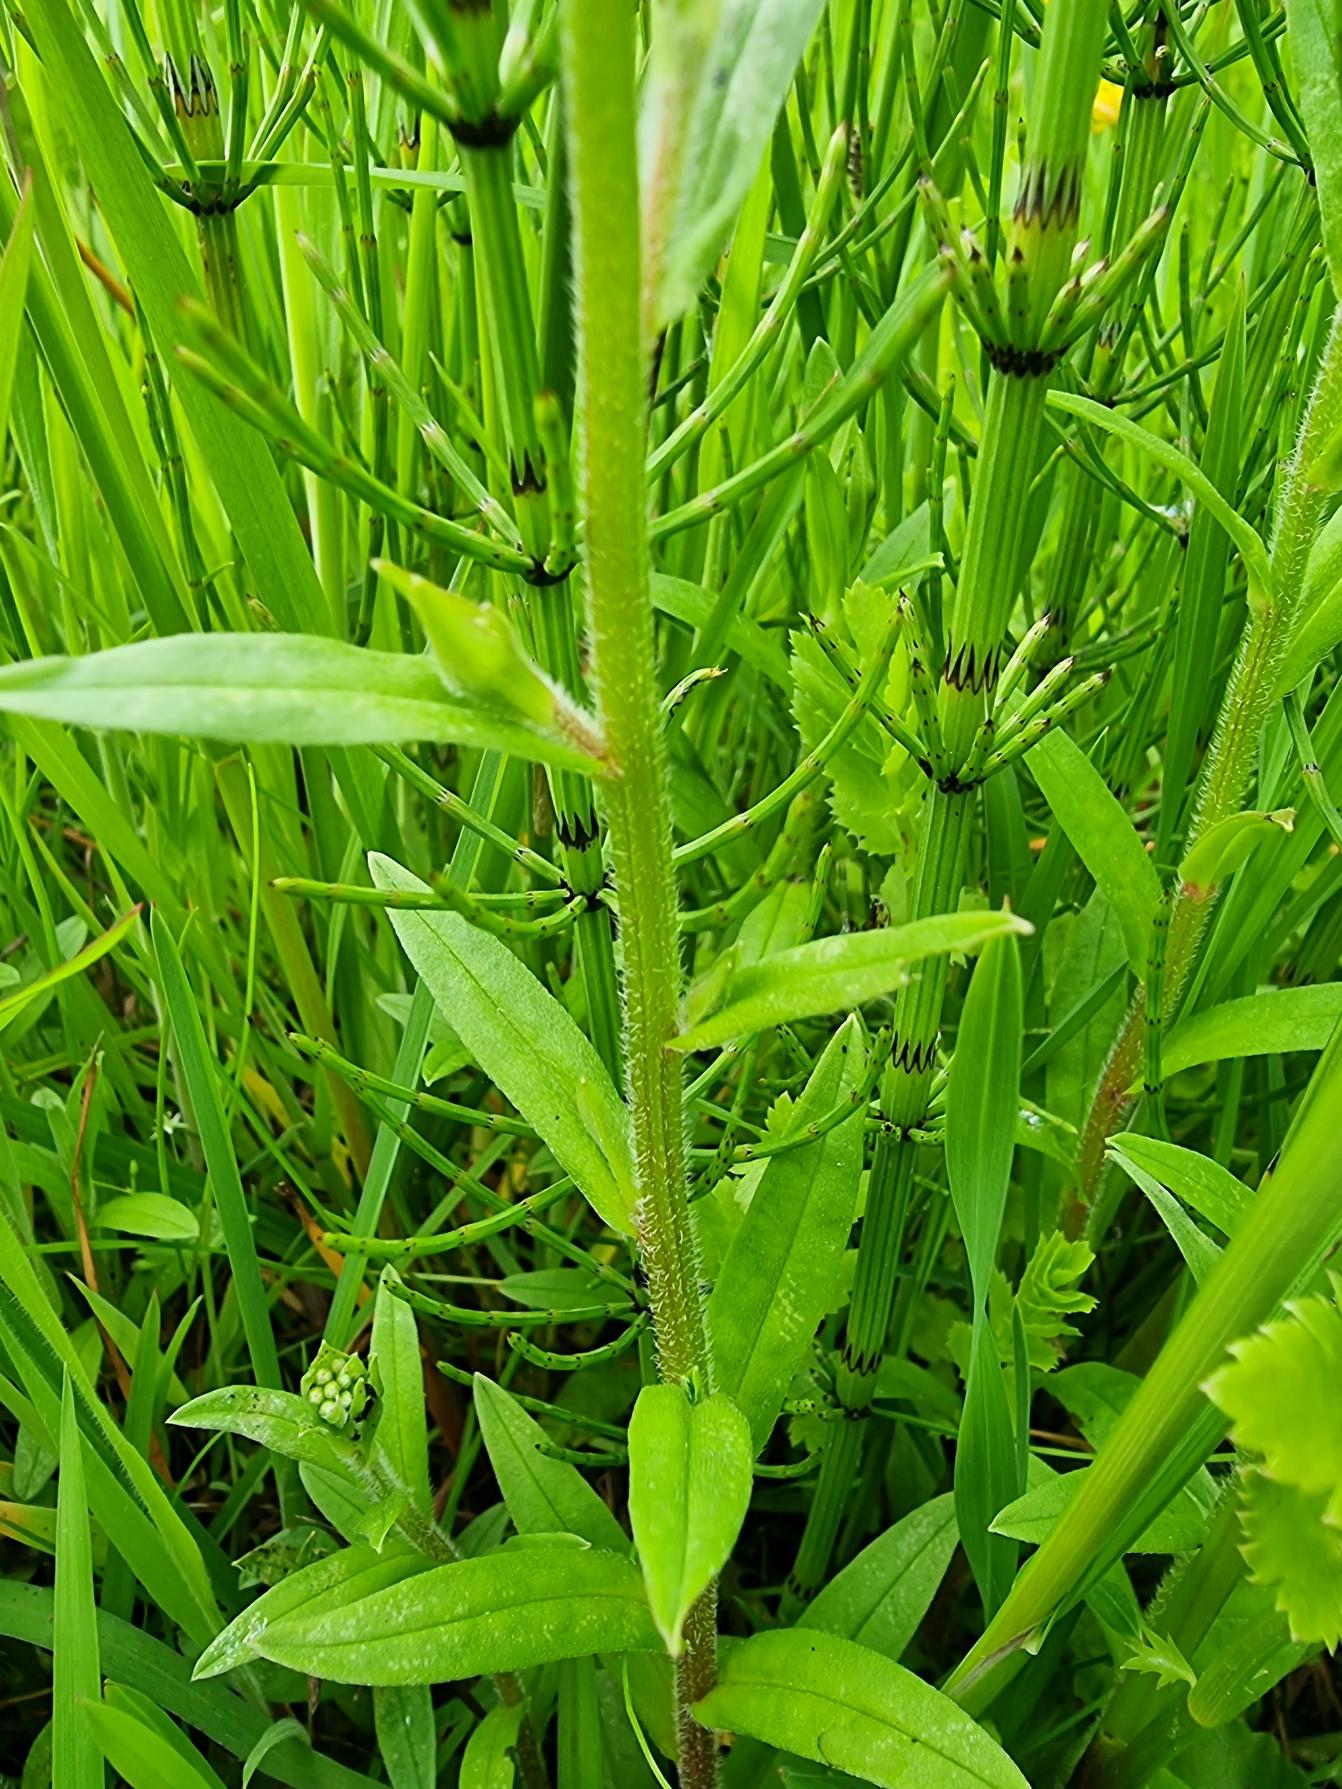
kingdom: Plantae
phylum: Tracheophyta
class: Magnoliopsida
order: Boraginales
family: Boraginaceae
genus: Myosotis
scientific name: Myosotis scorpioides
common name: Eng-forglemmigej
